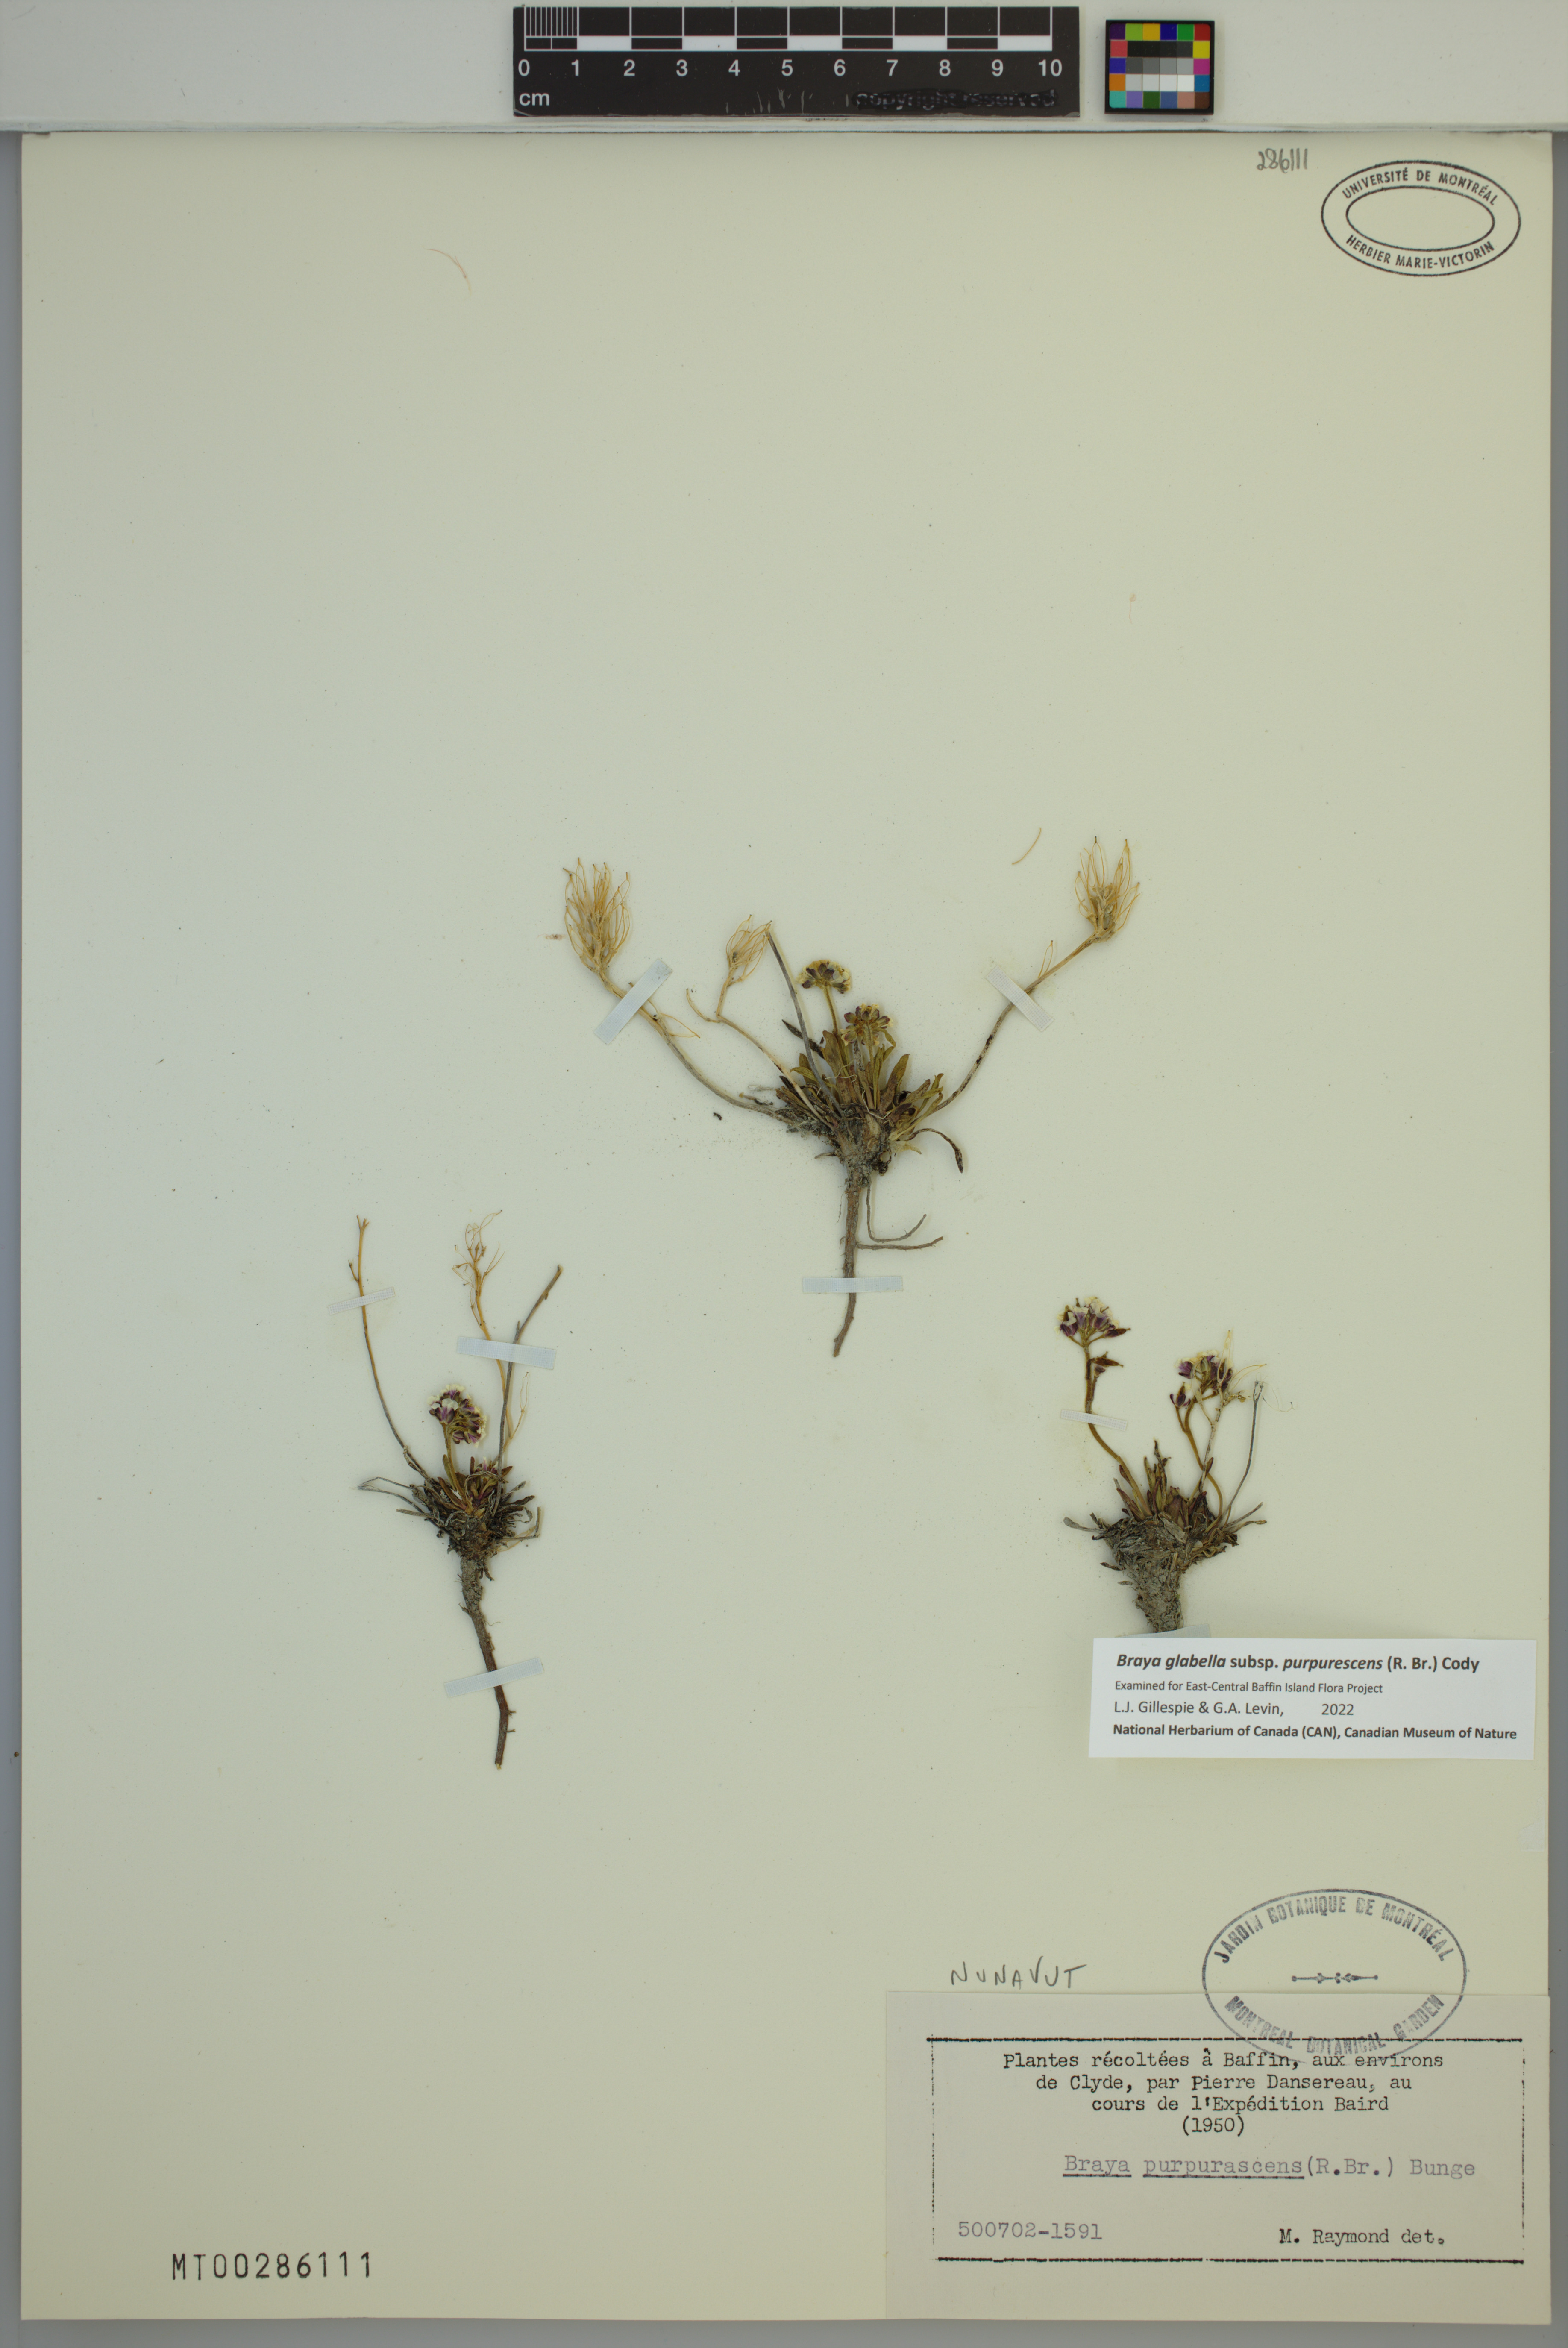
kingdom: Plantae
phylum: Tracheophyta
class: Magnoliopsida
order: Brassicales
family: Brassicaceae
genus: Braya
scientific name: Braya purpurascens
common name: Alpine braya
